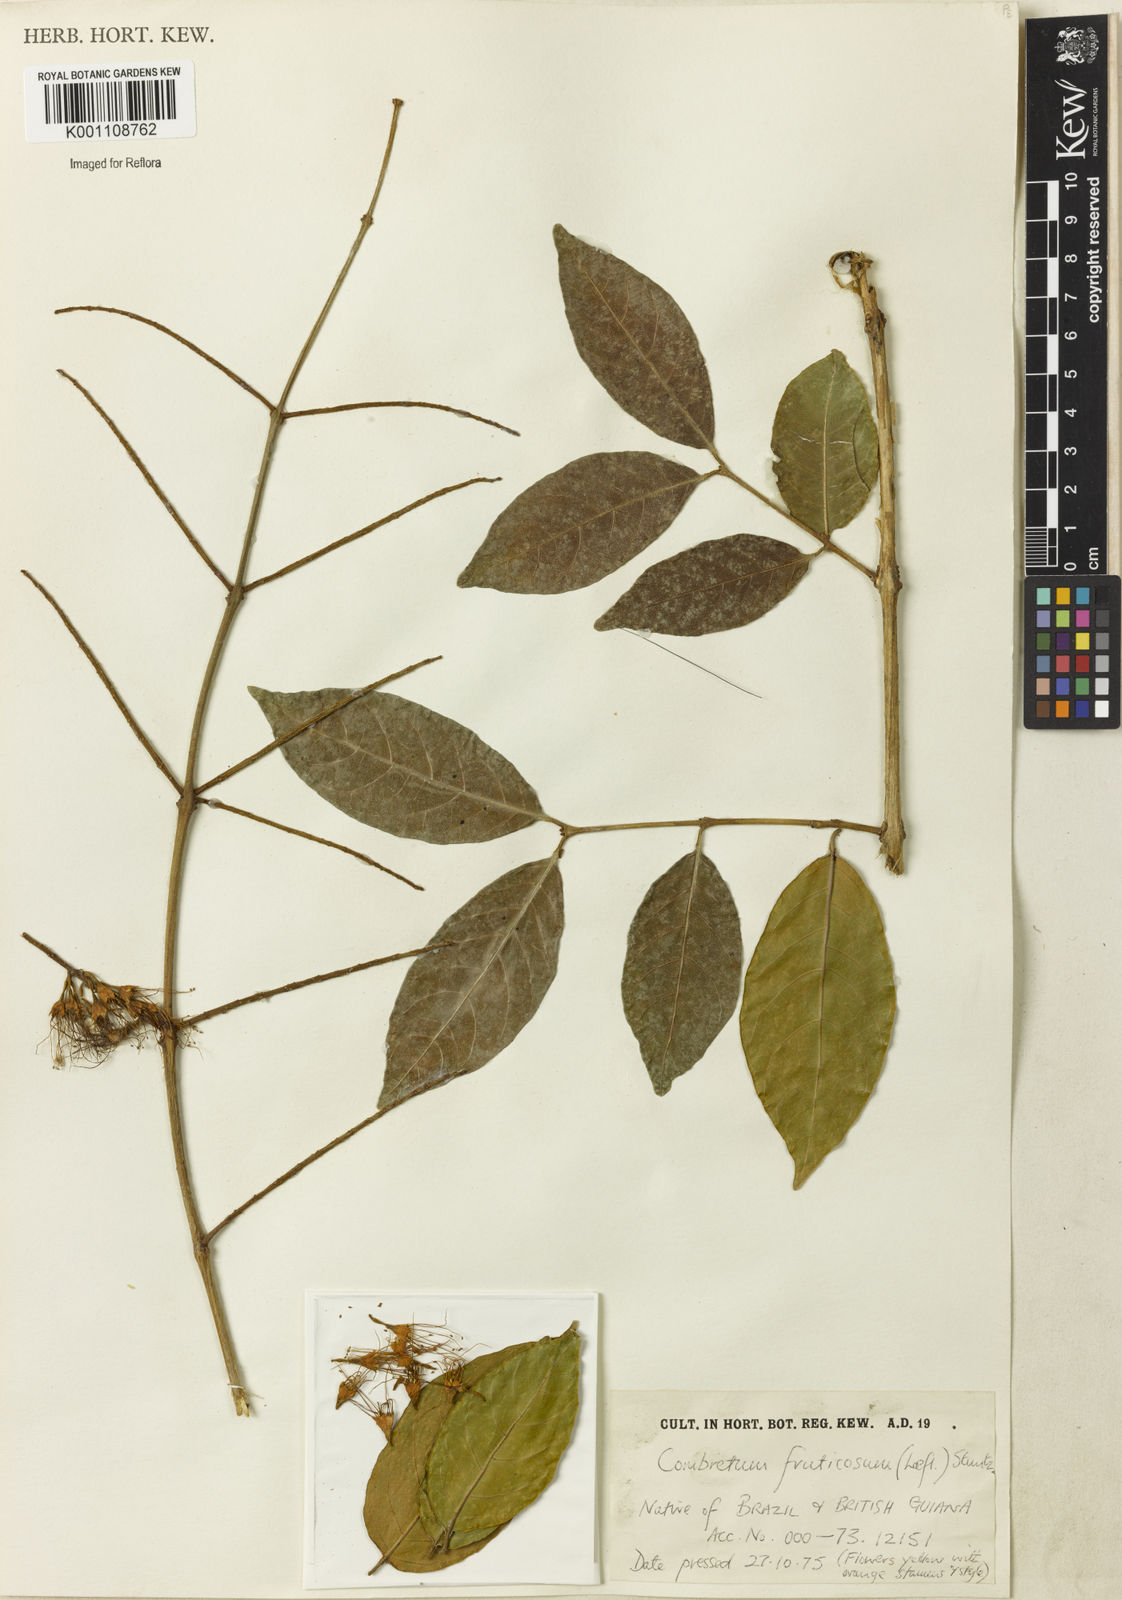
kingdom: Plantae
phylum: Tracheophyta
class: Magnoliopsida
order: Myrtales
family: Combretaceae
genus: Combretum
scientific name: Combretum fruticosum
